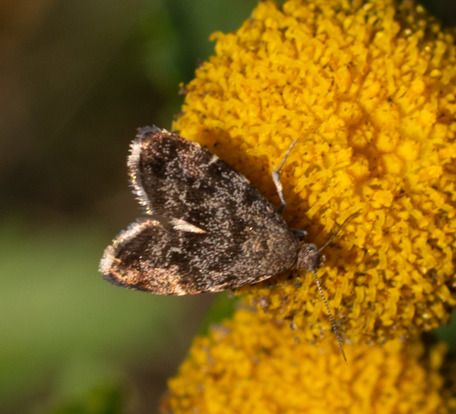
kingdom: Animalia
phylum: Arthropoda
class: Insecta
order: Lepidoptera
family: Choreutidae
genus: Anthophila
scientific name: Anthophila fabriciana
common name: Bredvinget nældevikler
